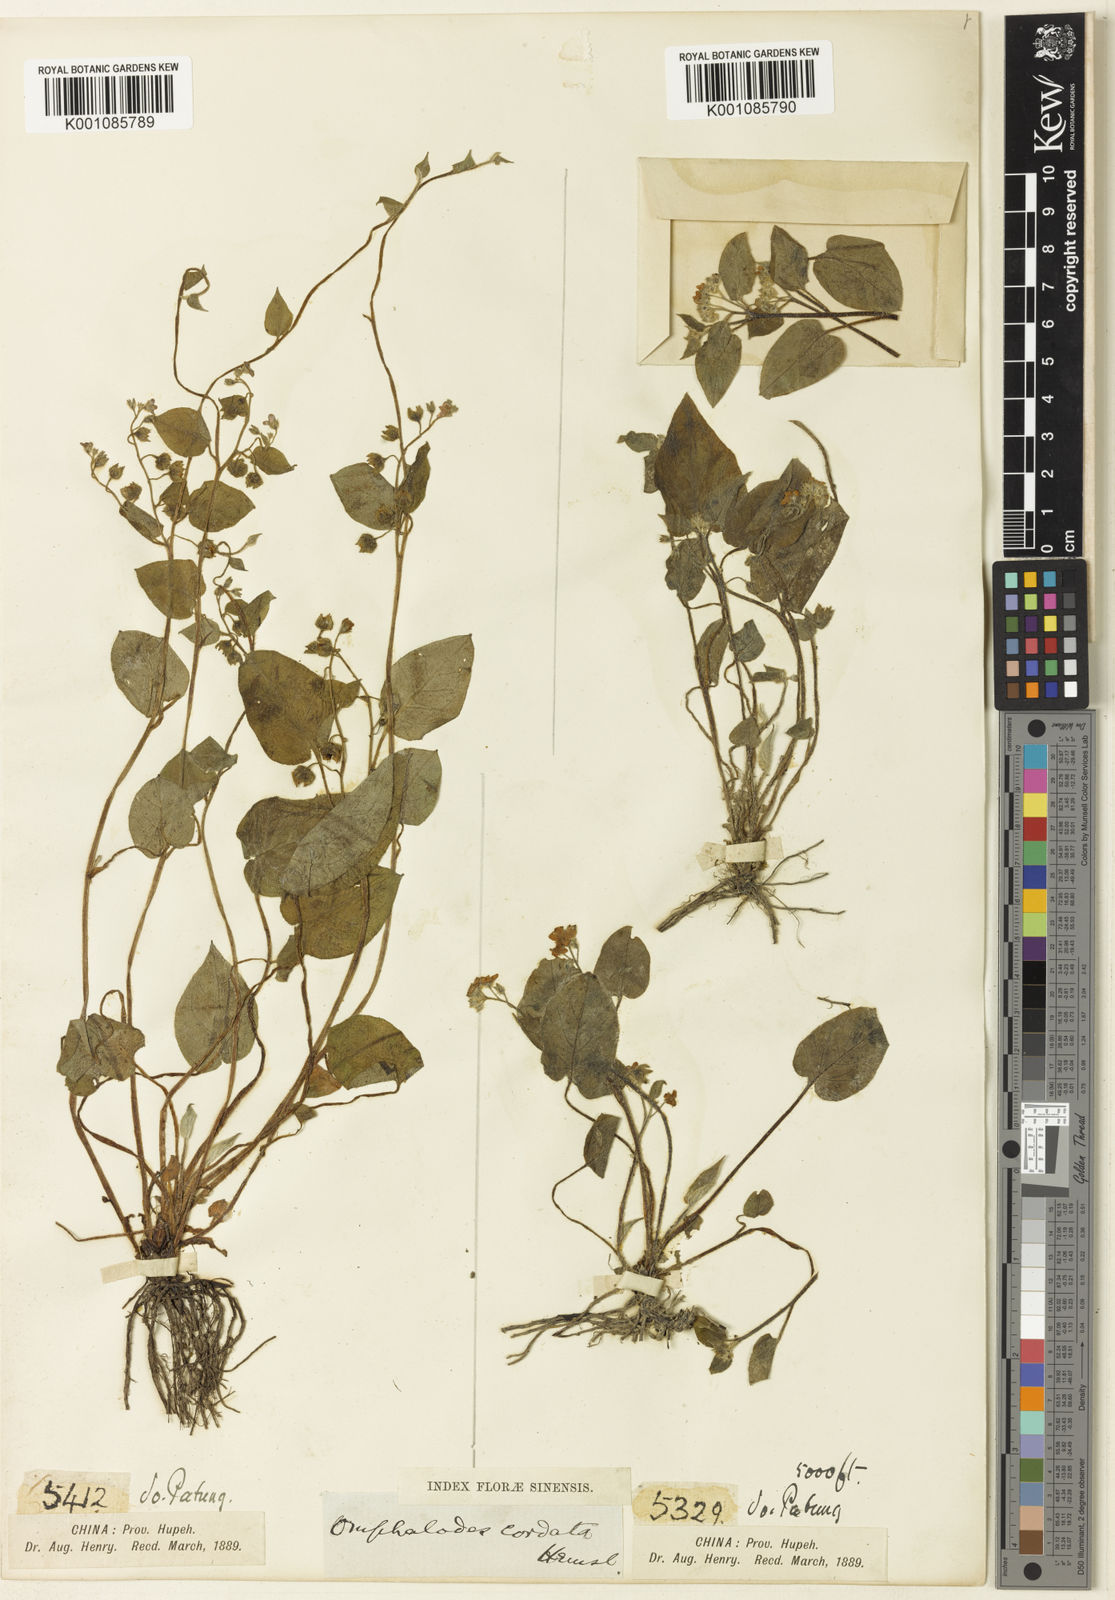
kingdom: Plantae
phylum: Tracheophyta
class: Magnoliopsida
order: Boraginales
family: Boraginaceae
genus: Trigonotis
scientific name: Trigonotis
